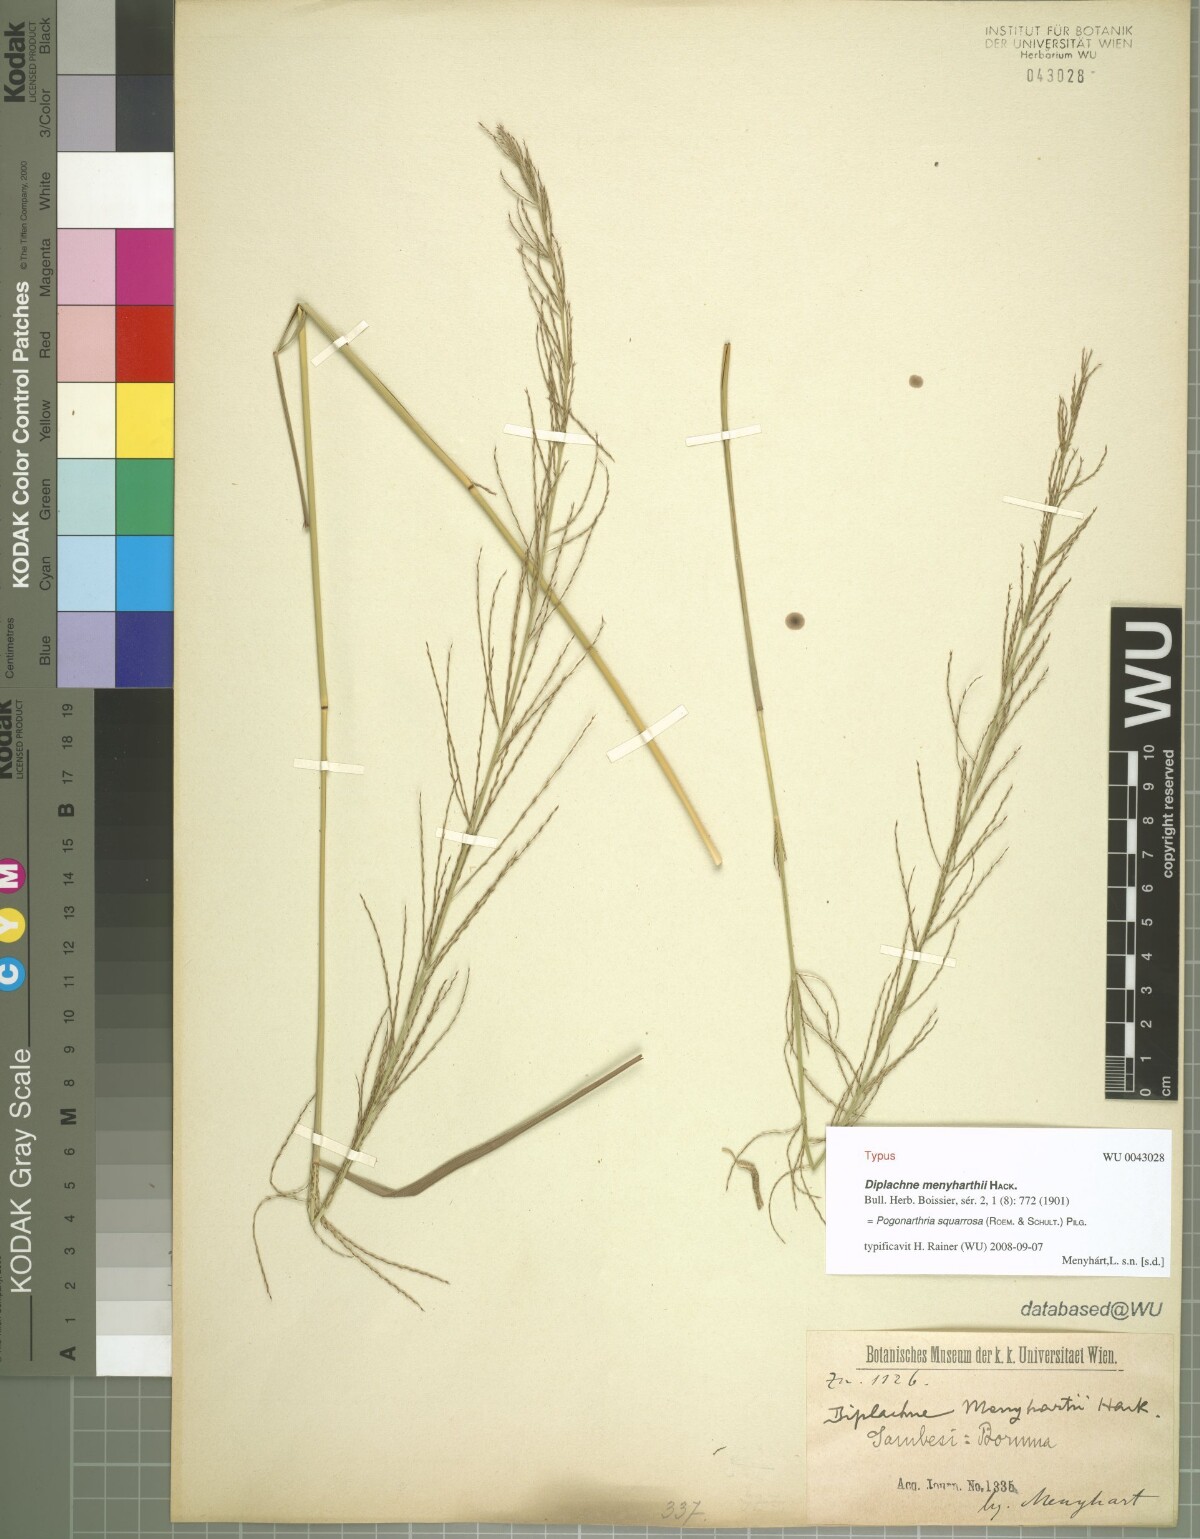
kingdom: Plantae
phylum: Tracheophyta
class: Liliopsida
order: Poales
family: Poaceae
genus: Pogonarthria
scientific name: Pogonarthria squarrosa
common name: Grass
